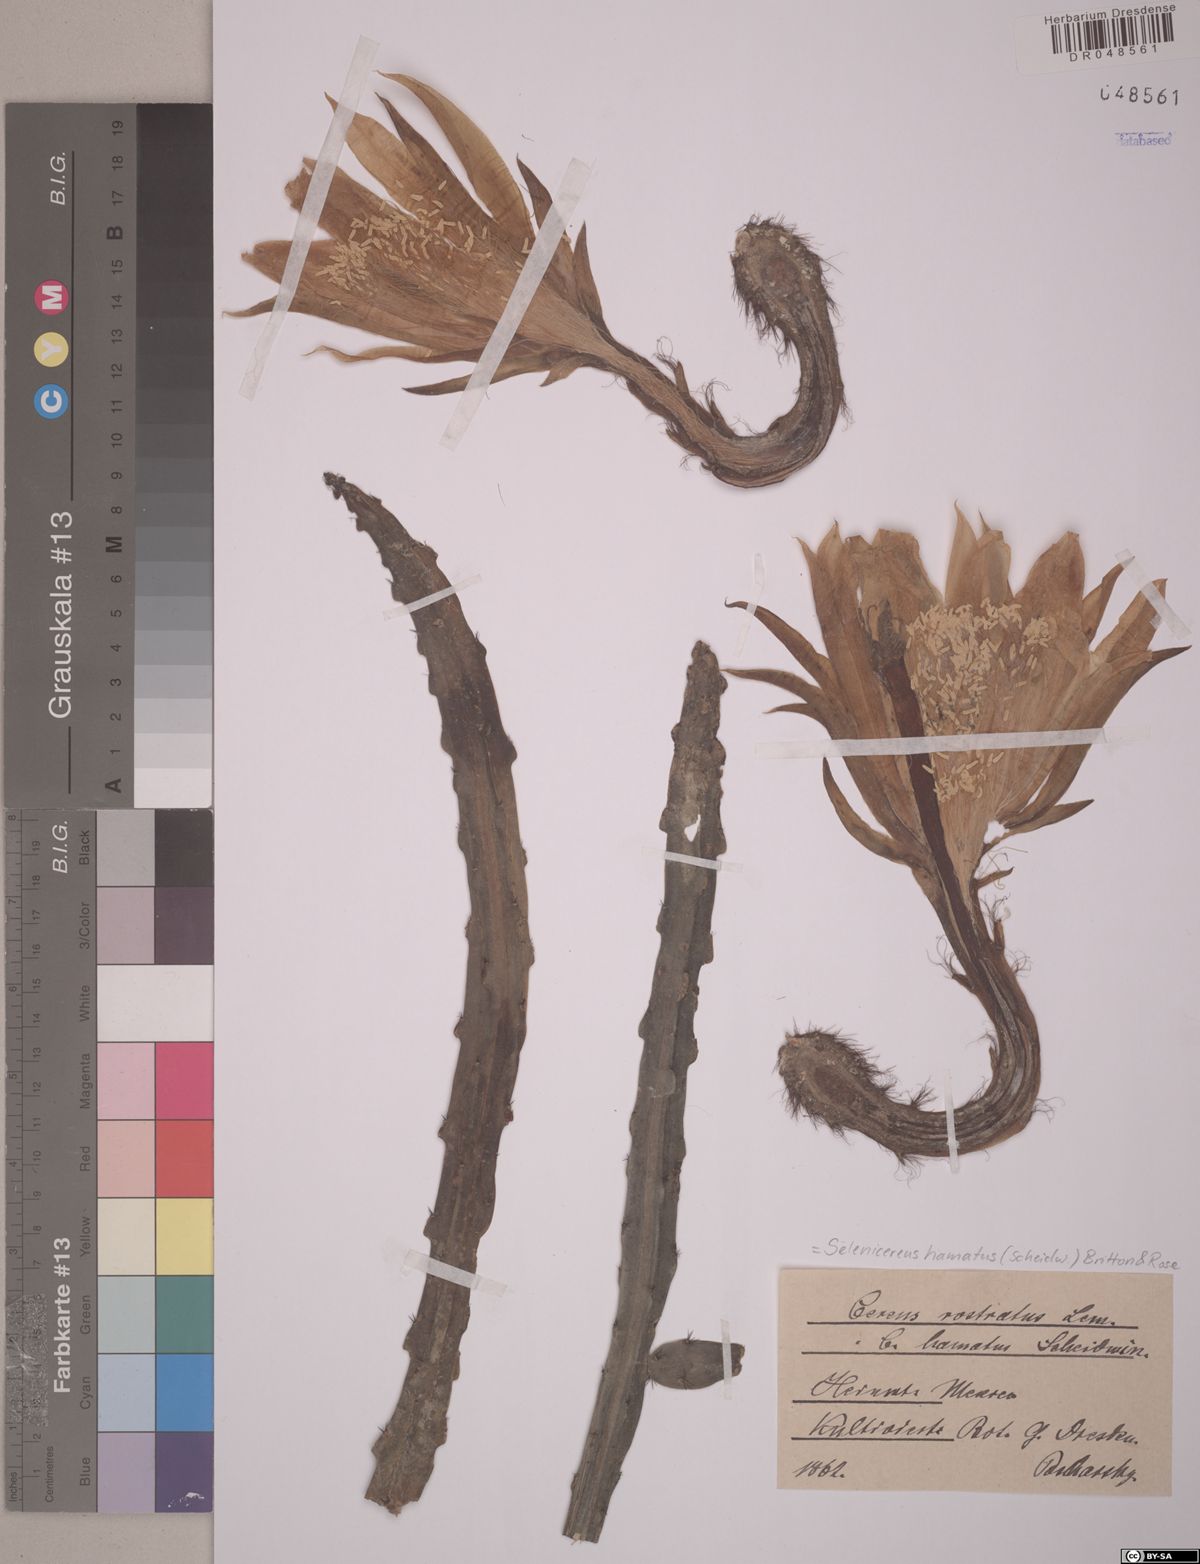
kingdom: Plantae
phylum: Tracheophyta
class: Magnoliopsida
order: Caryophyllales
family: Cactaceae
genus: Selenicereus
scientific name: Selenicereus hamatus
